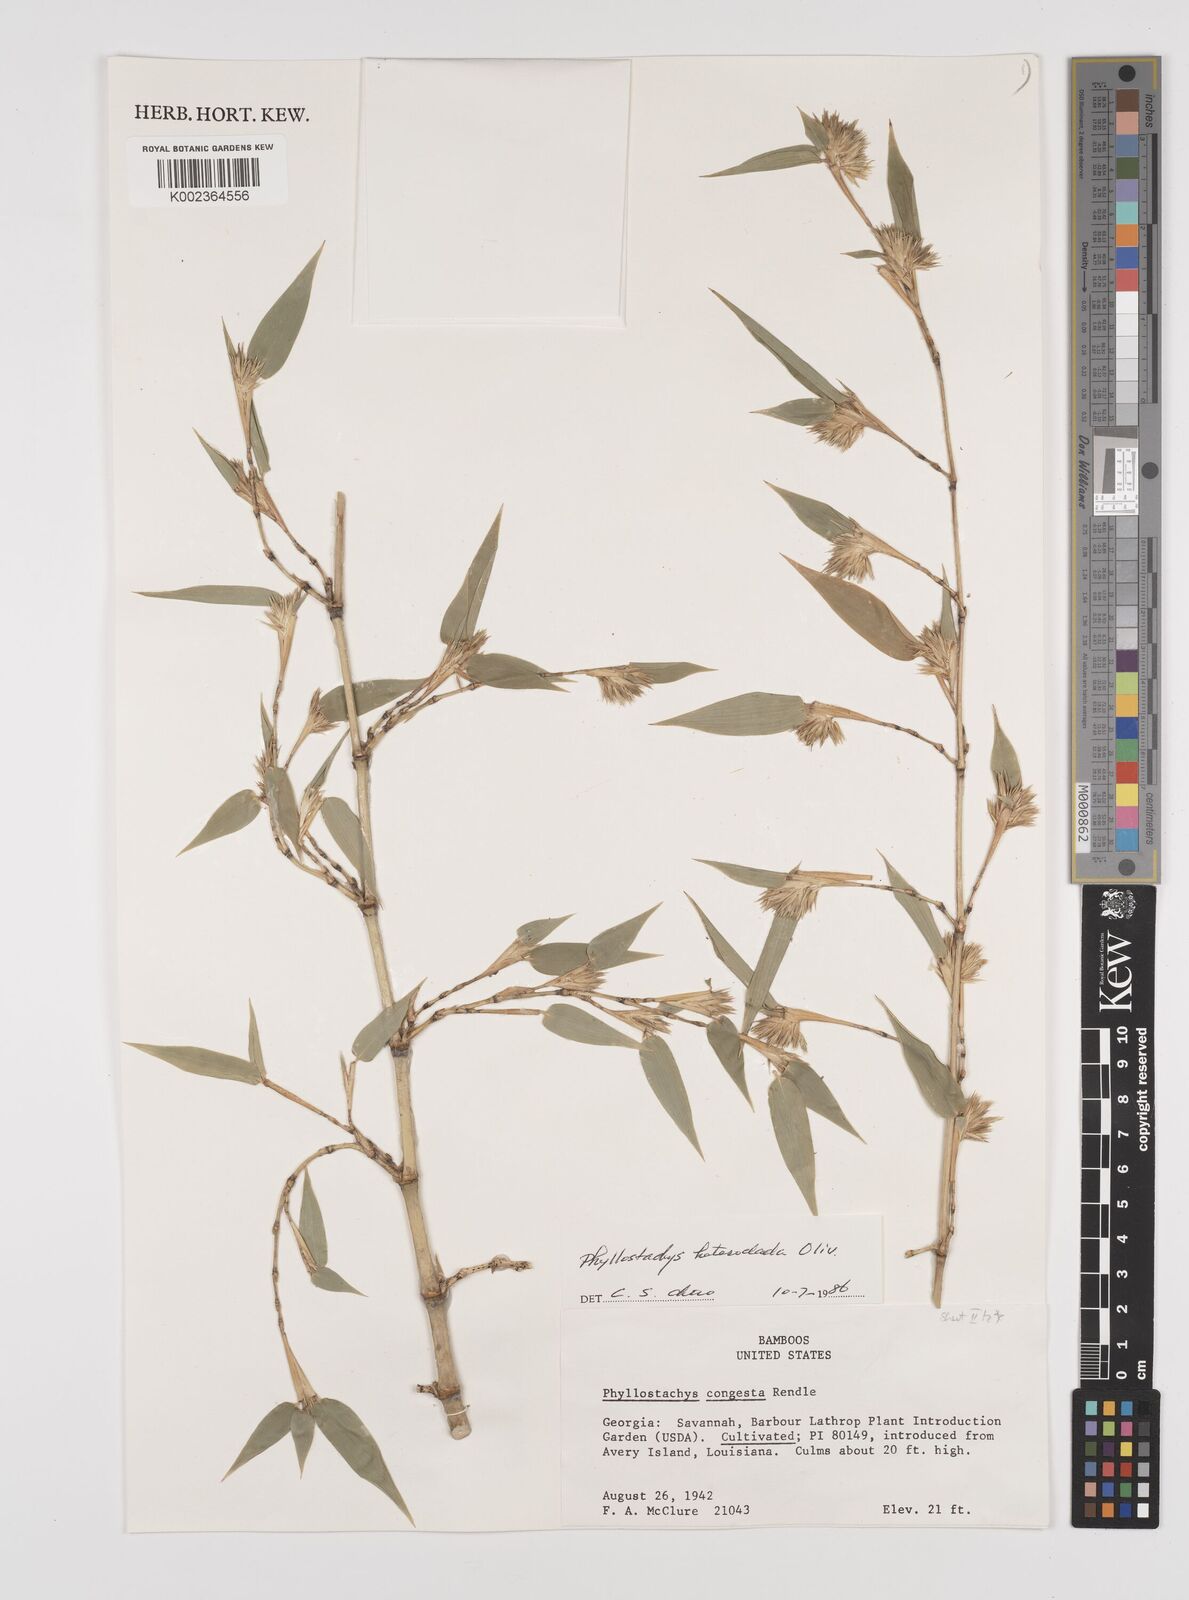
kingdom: Plantae
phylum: Tracheophyta
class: Liliopsida
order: Poales
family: Poaceae
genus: Phyllostachys
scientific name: Phyllostachys heteroclada
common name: Fishscale bamboo
